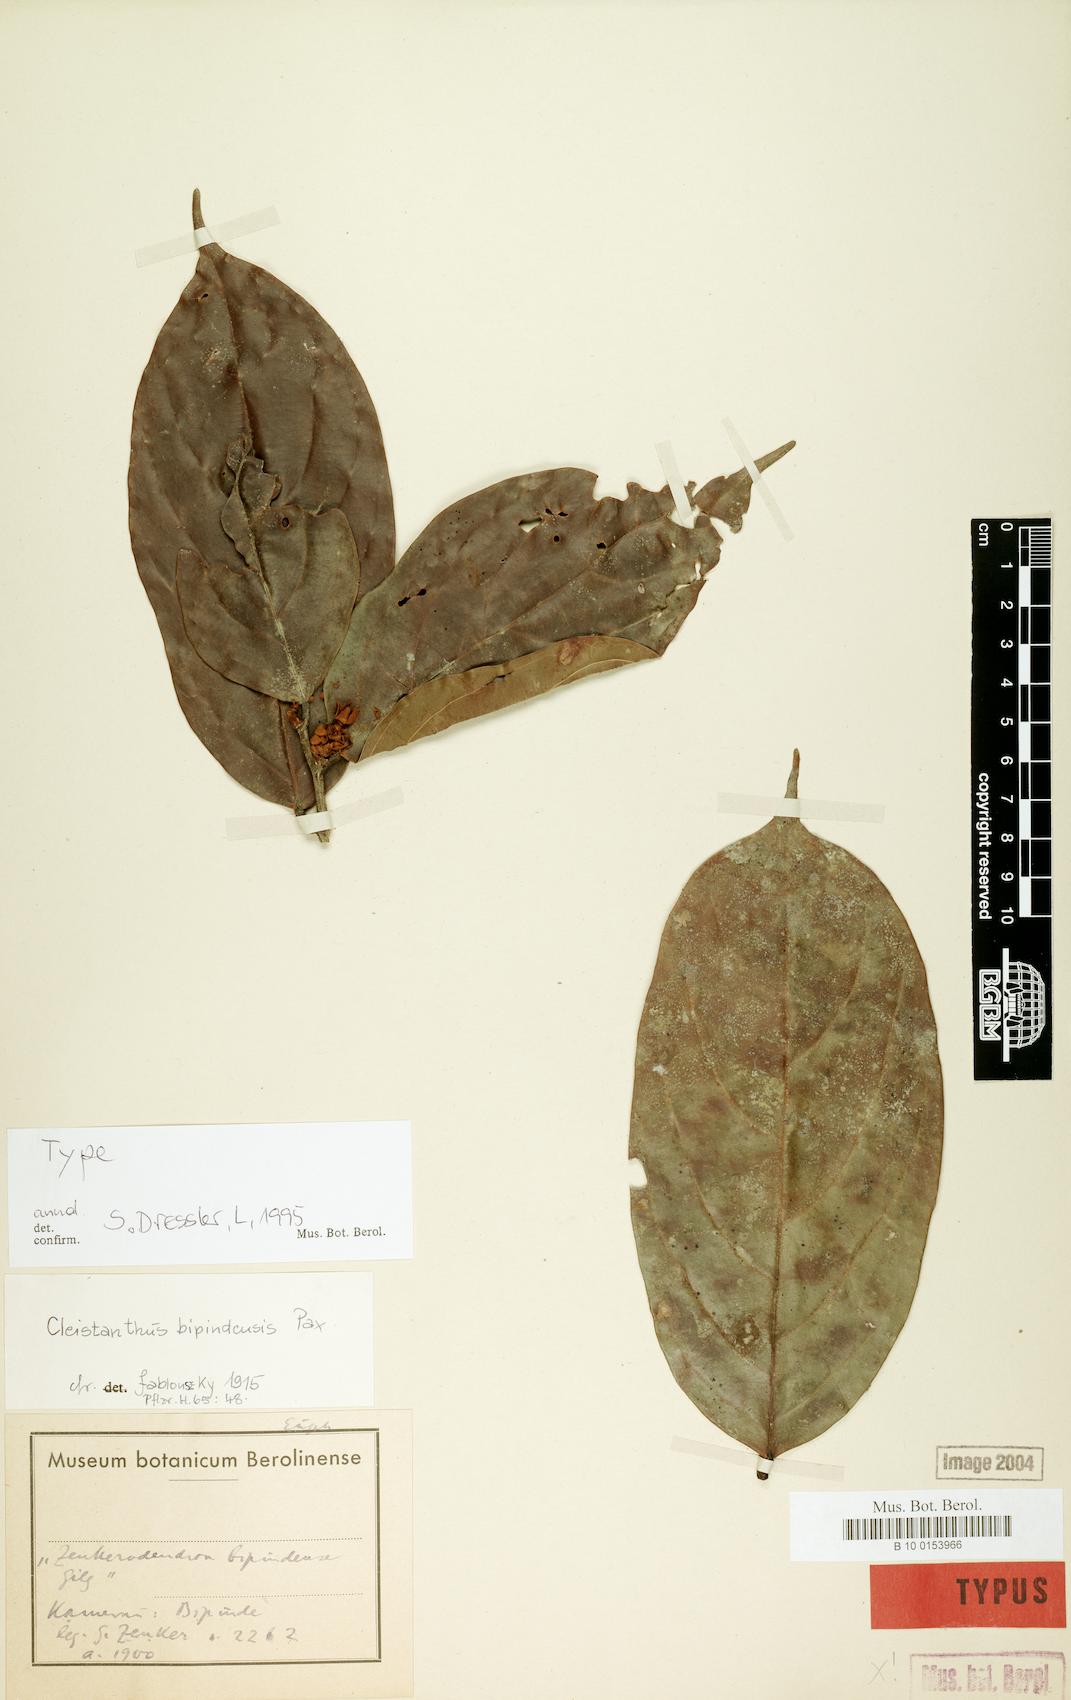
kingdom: Plantae
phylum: Tracheophyta
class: Magnoliopsida
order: Malpighiales
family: Phyllanthaceae
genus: Cleistanthus
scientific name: Cleistanthus bipindensis
